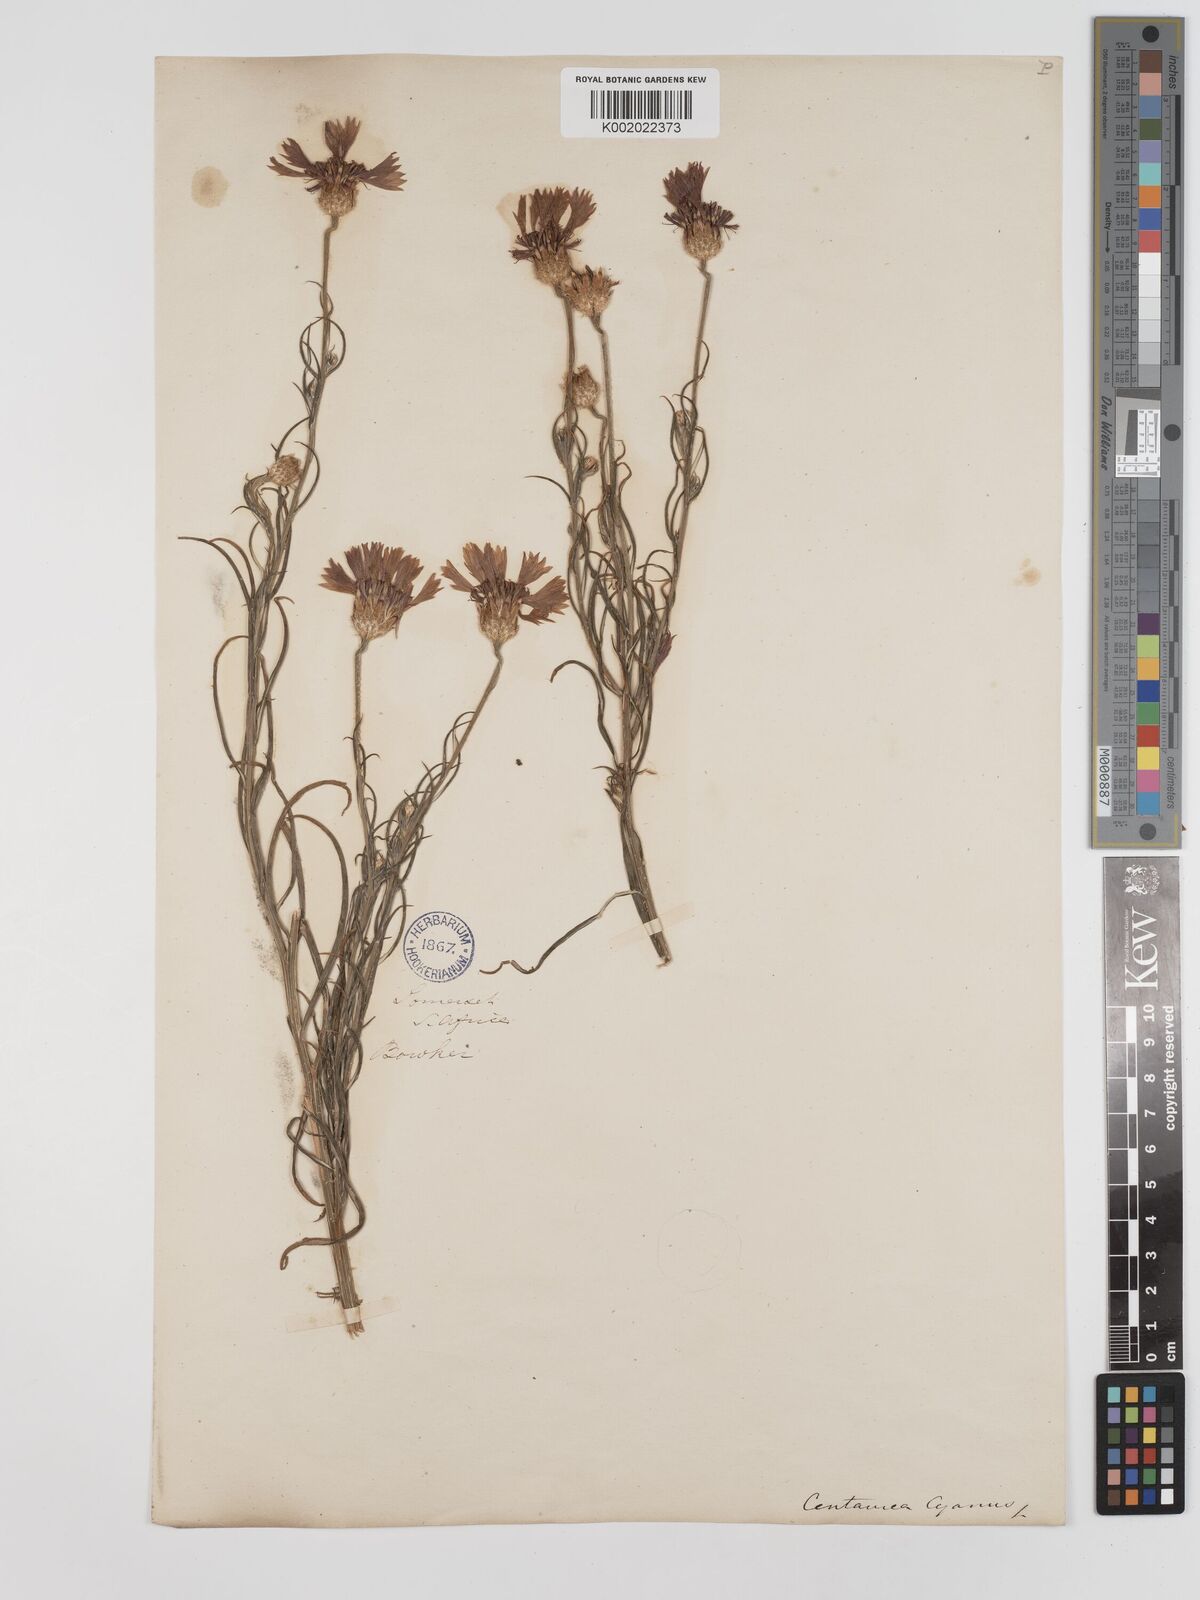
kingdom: Plantae
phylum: Tracheophyta
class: Magnoliopsida
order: Asterales
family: Asteraceae
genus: Centaurea
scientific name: Centaurea cyanus
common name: Cornflower
